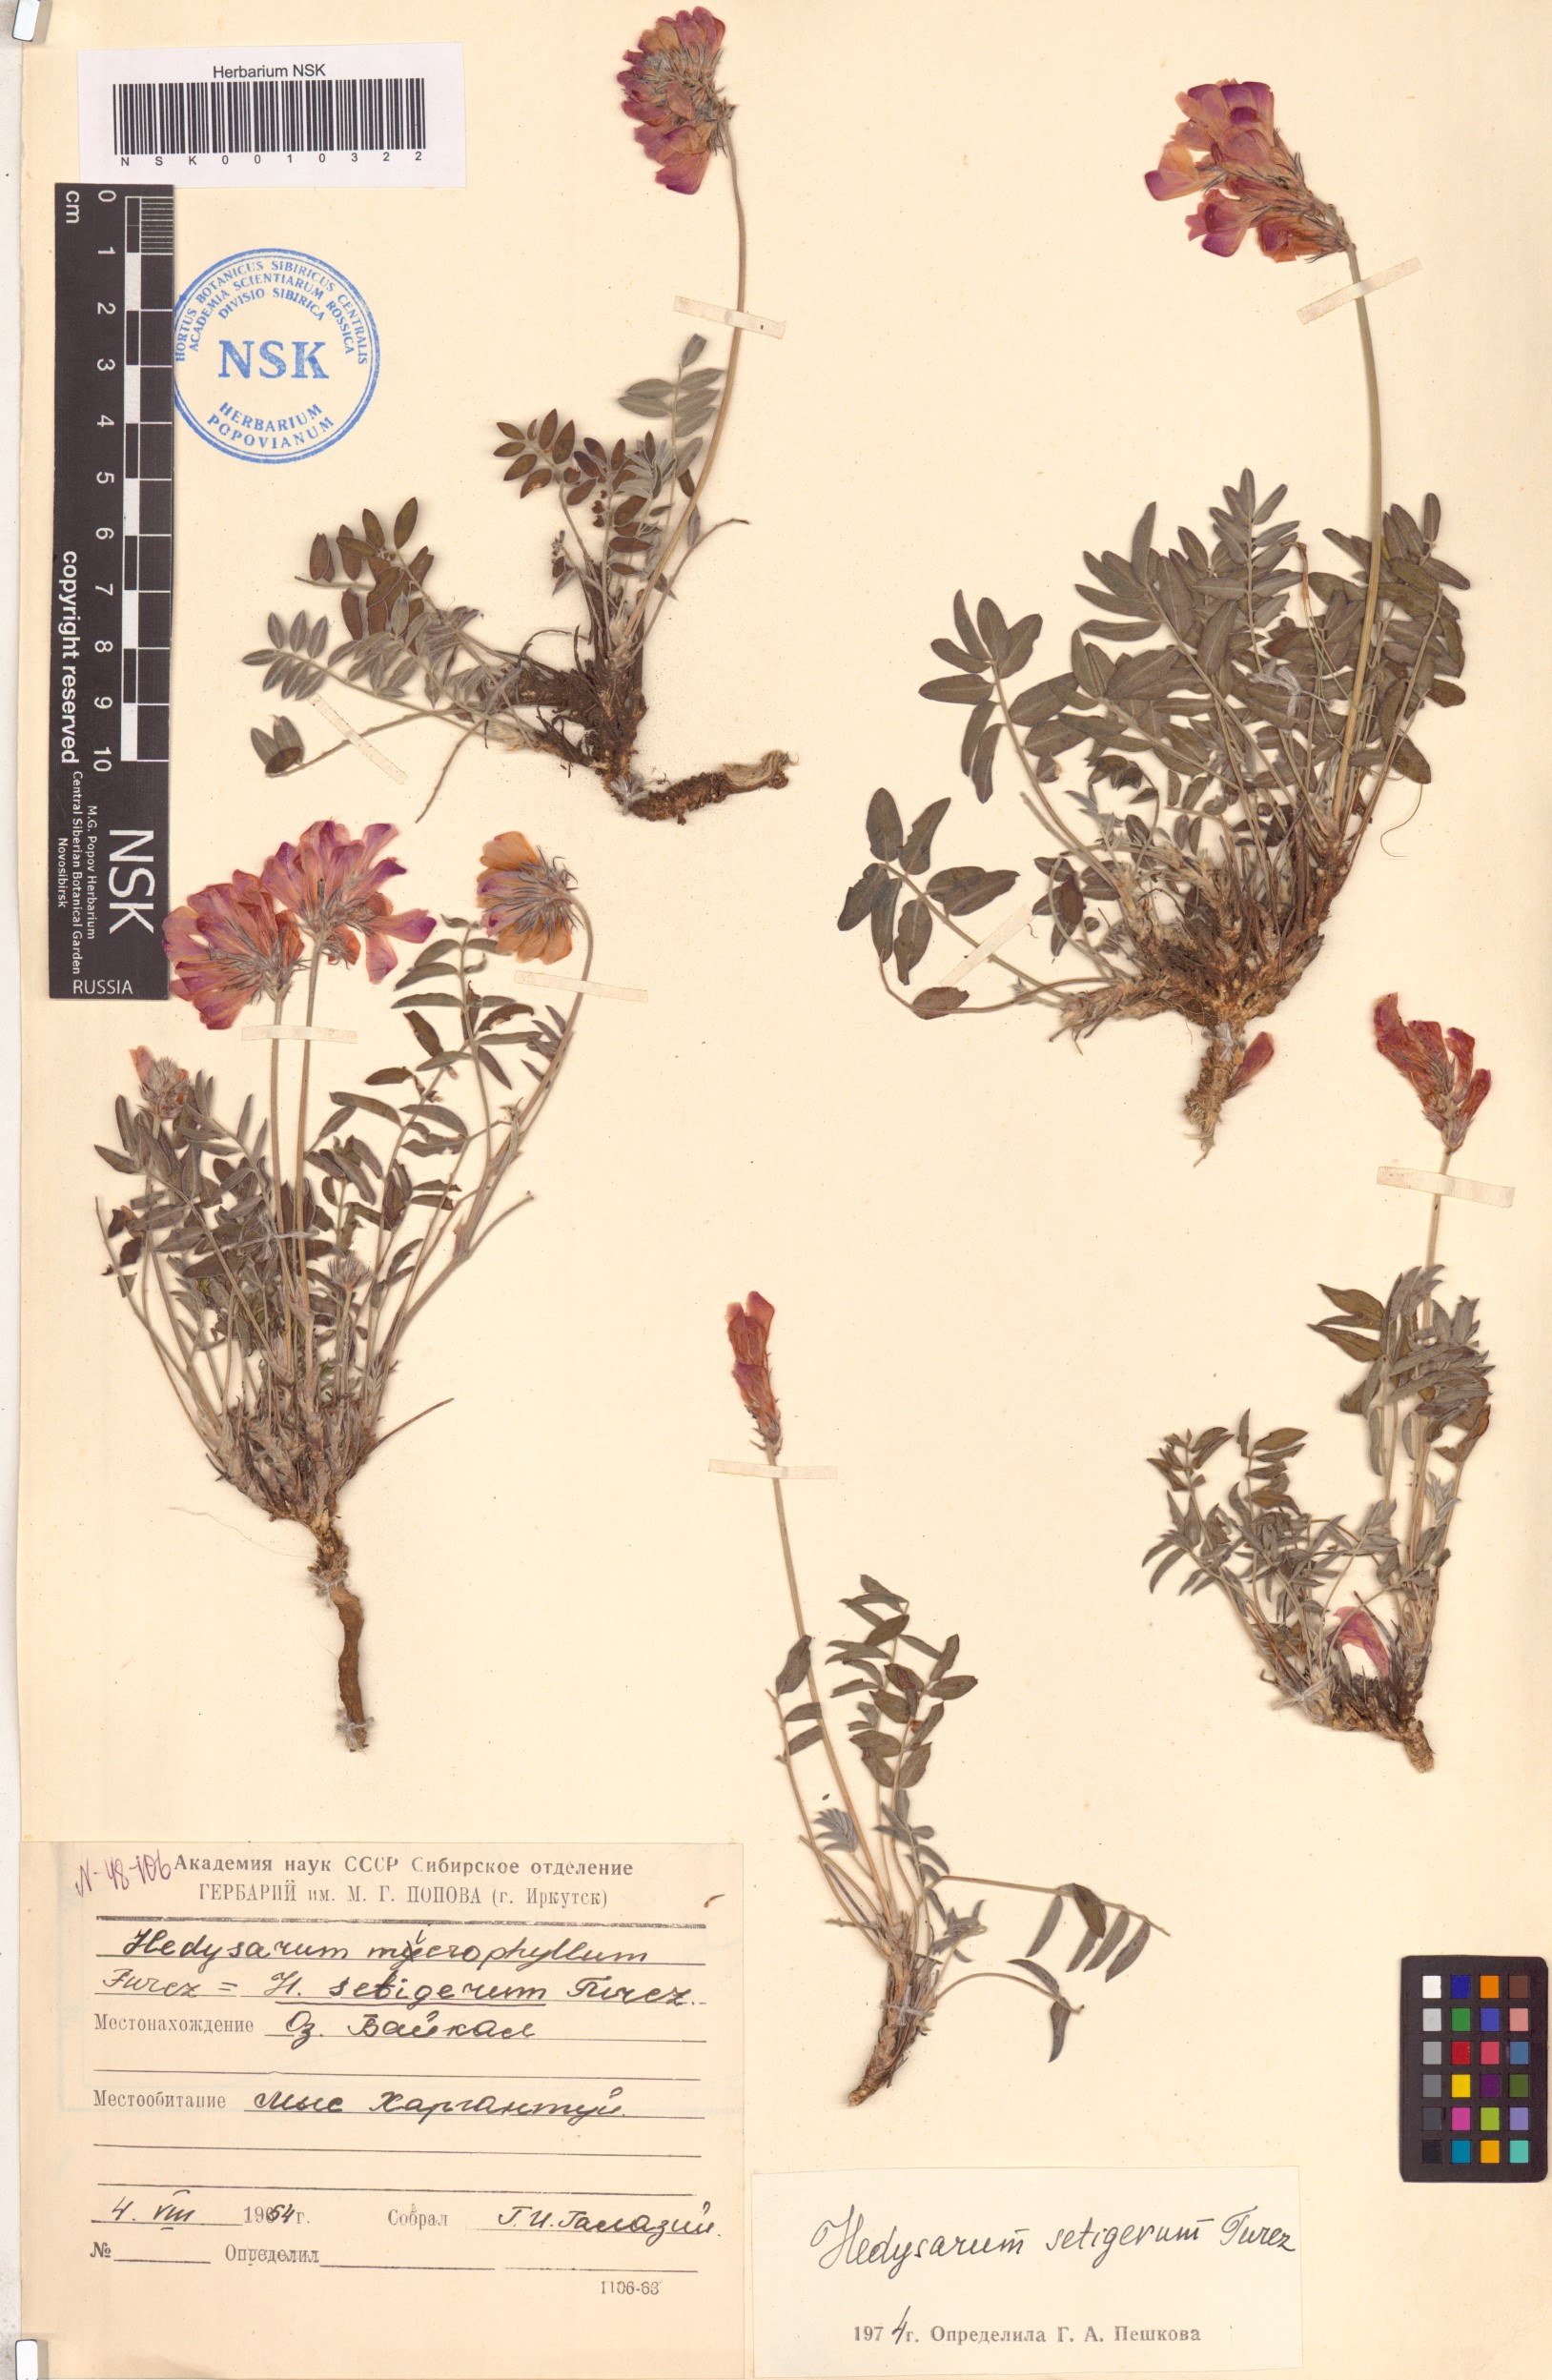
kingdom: Plantae
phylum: Tracheophyta
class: Magnoliopsida
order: Fabales
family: Fabaceae
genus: Hedysarum
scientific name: Hedysarum setigerum
